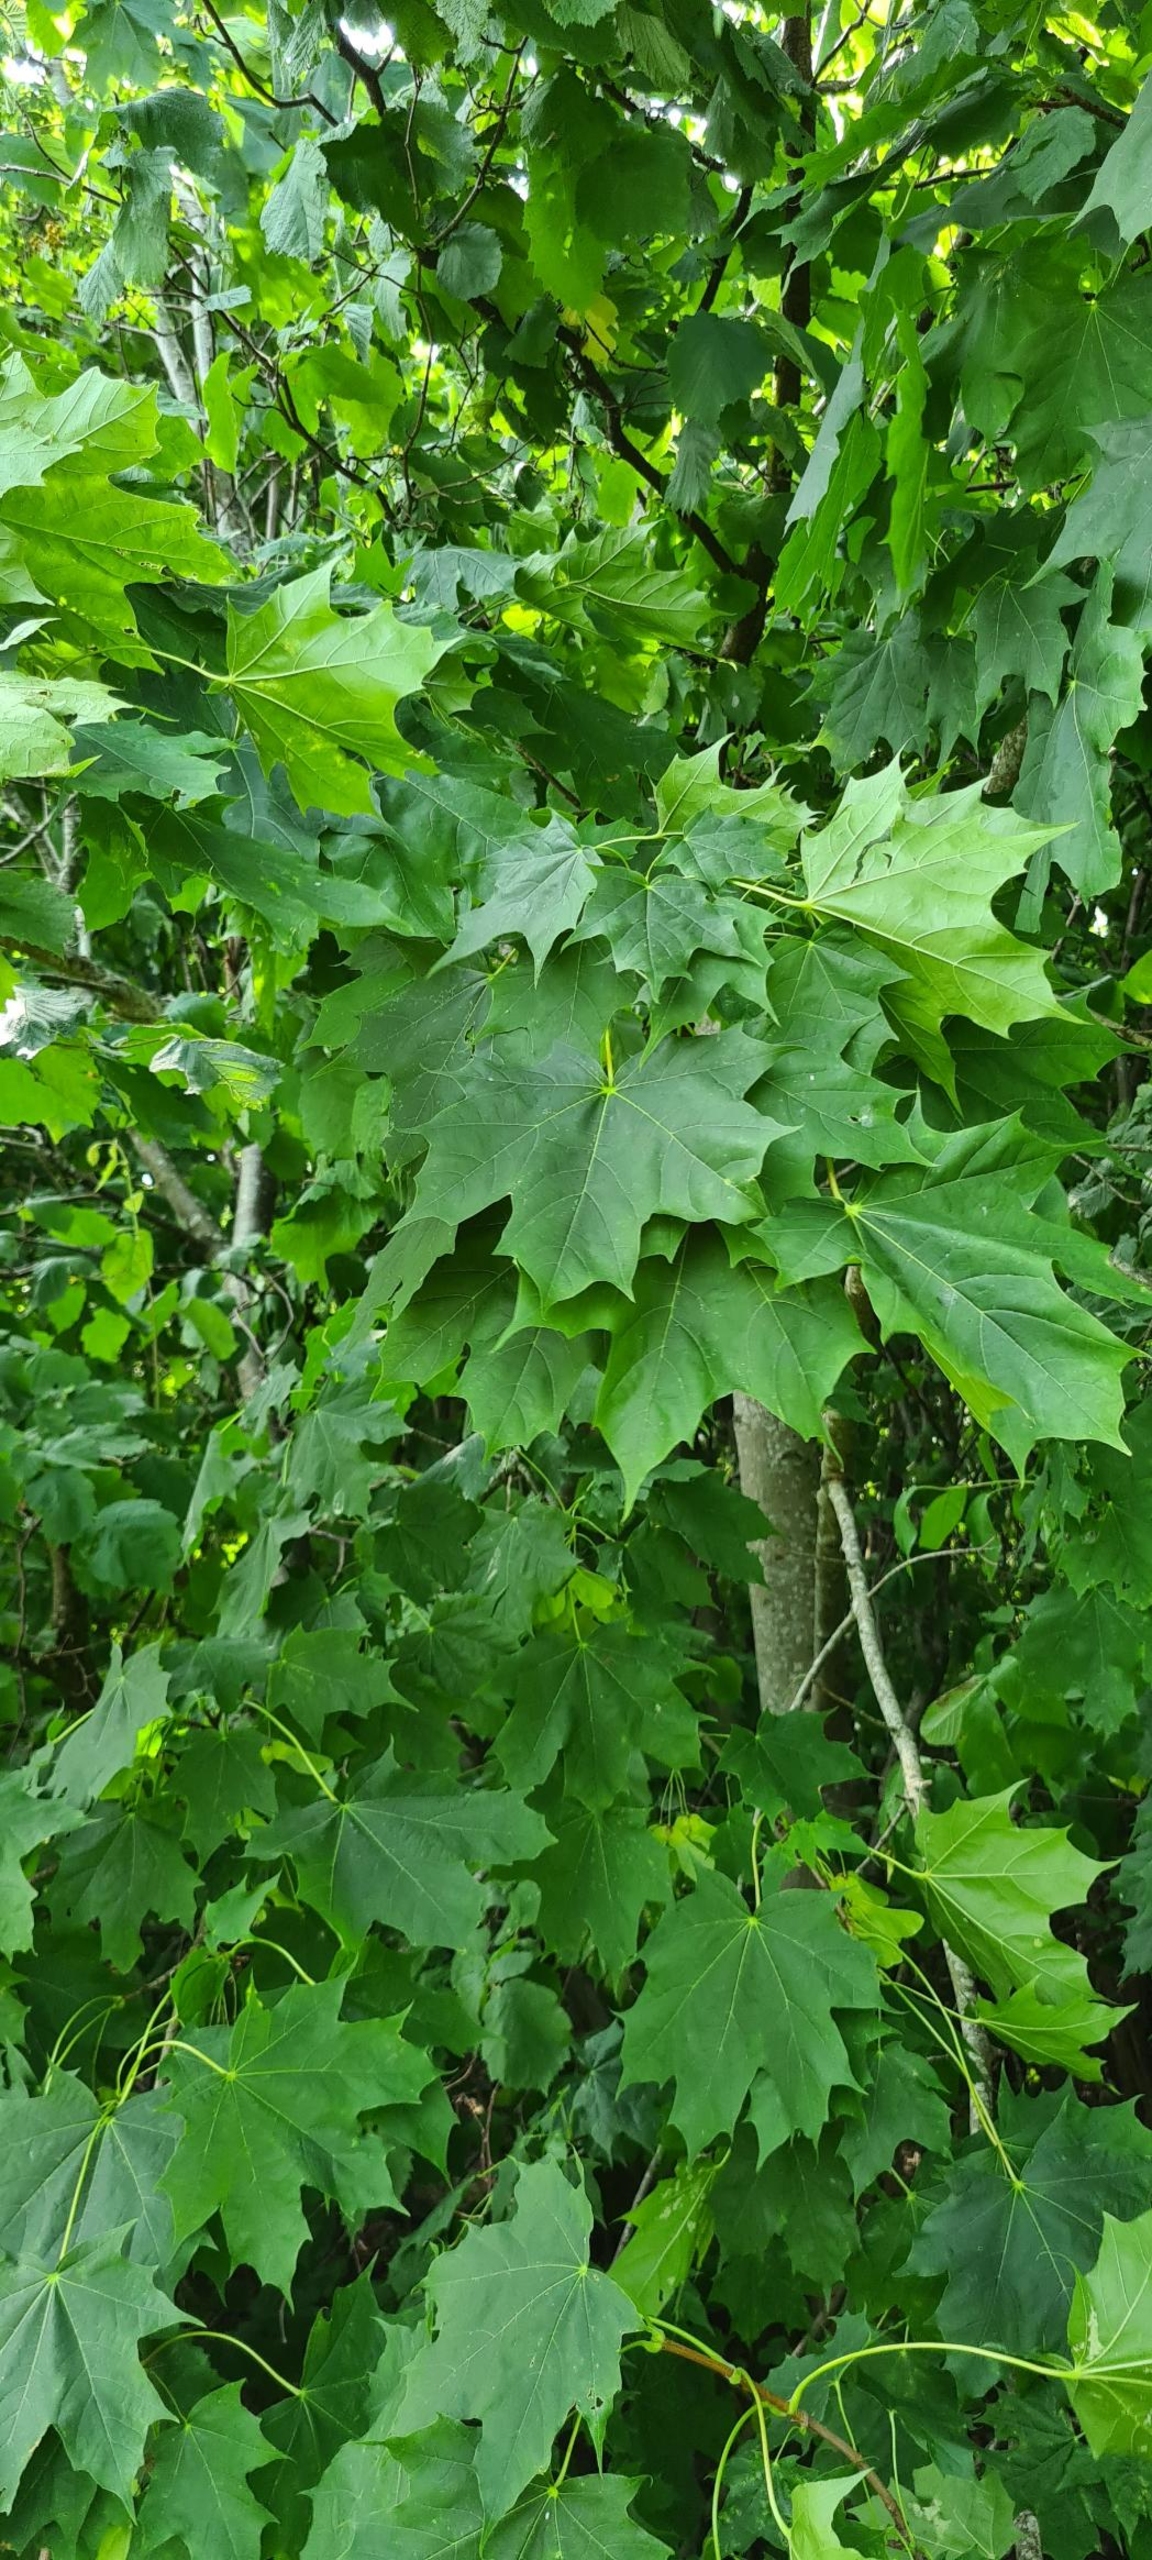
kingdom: Plantae
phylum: Tracheophyta
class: Magnoliopsida
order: Sapindales
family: Sapindaceae
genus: Acer
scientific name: Acer platanoides
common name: Spids-løn
